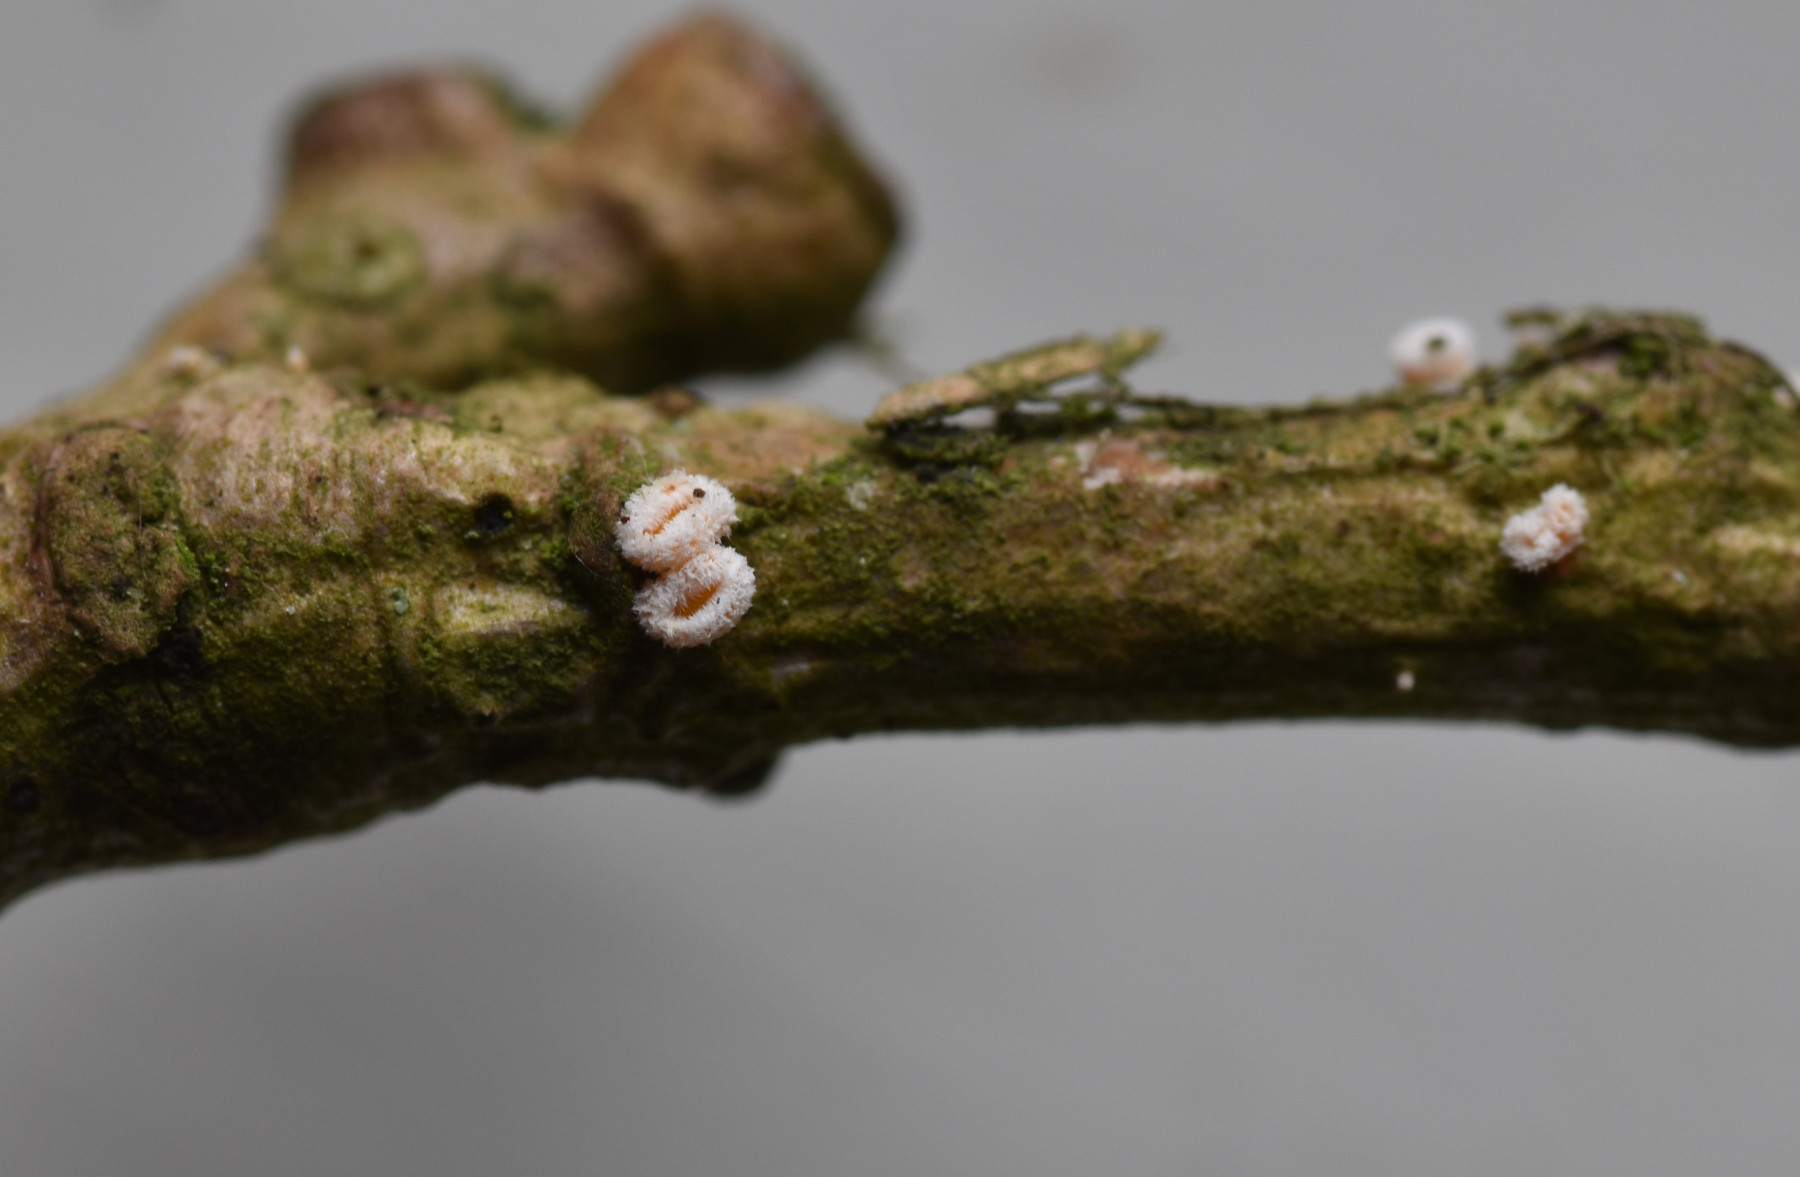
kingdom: Fungi
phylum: Ascomycota
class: Leotiomycetes
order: Helotiales
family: Lachnaceae
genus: Capitotricha
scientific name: Capitotricha bicolor
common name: prægtig frynseskive
